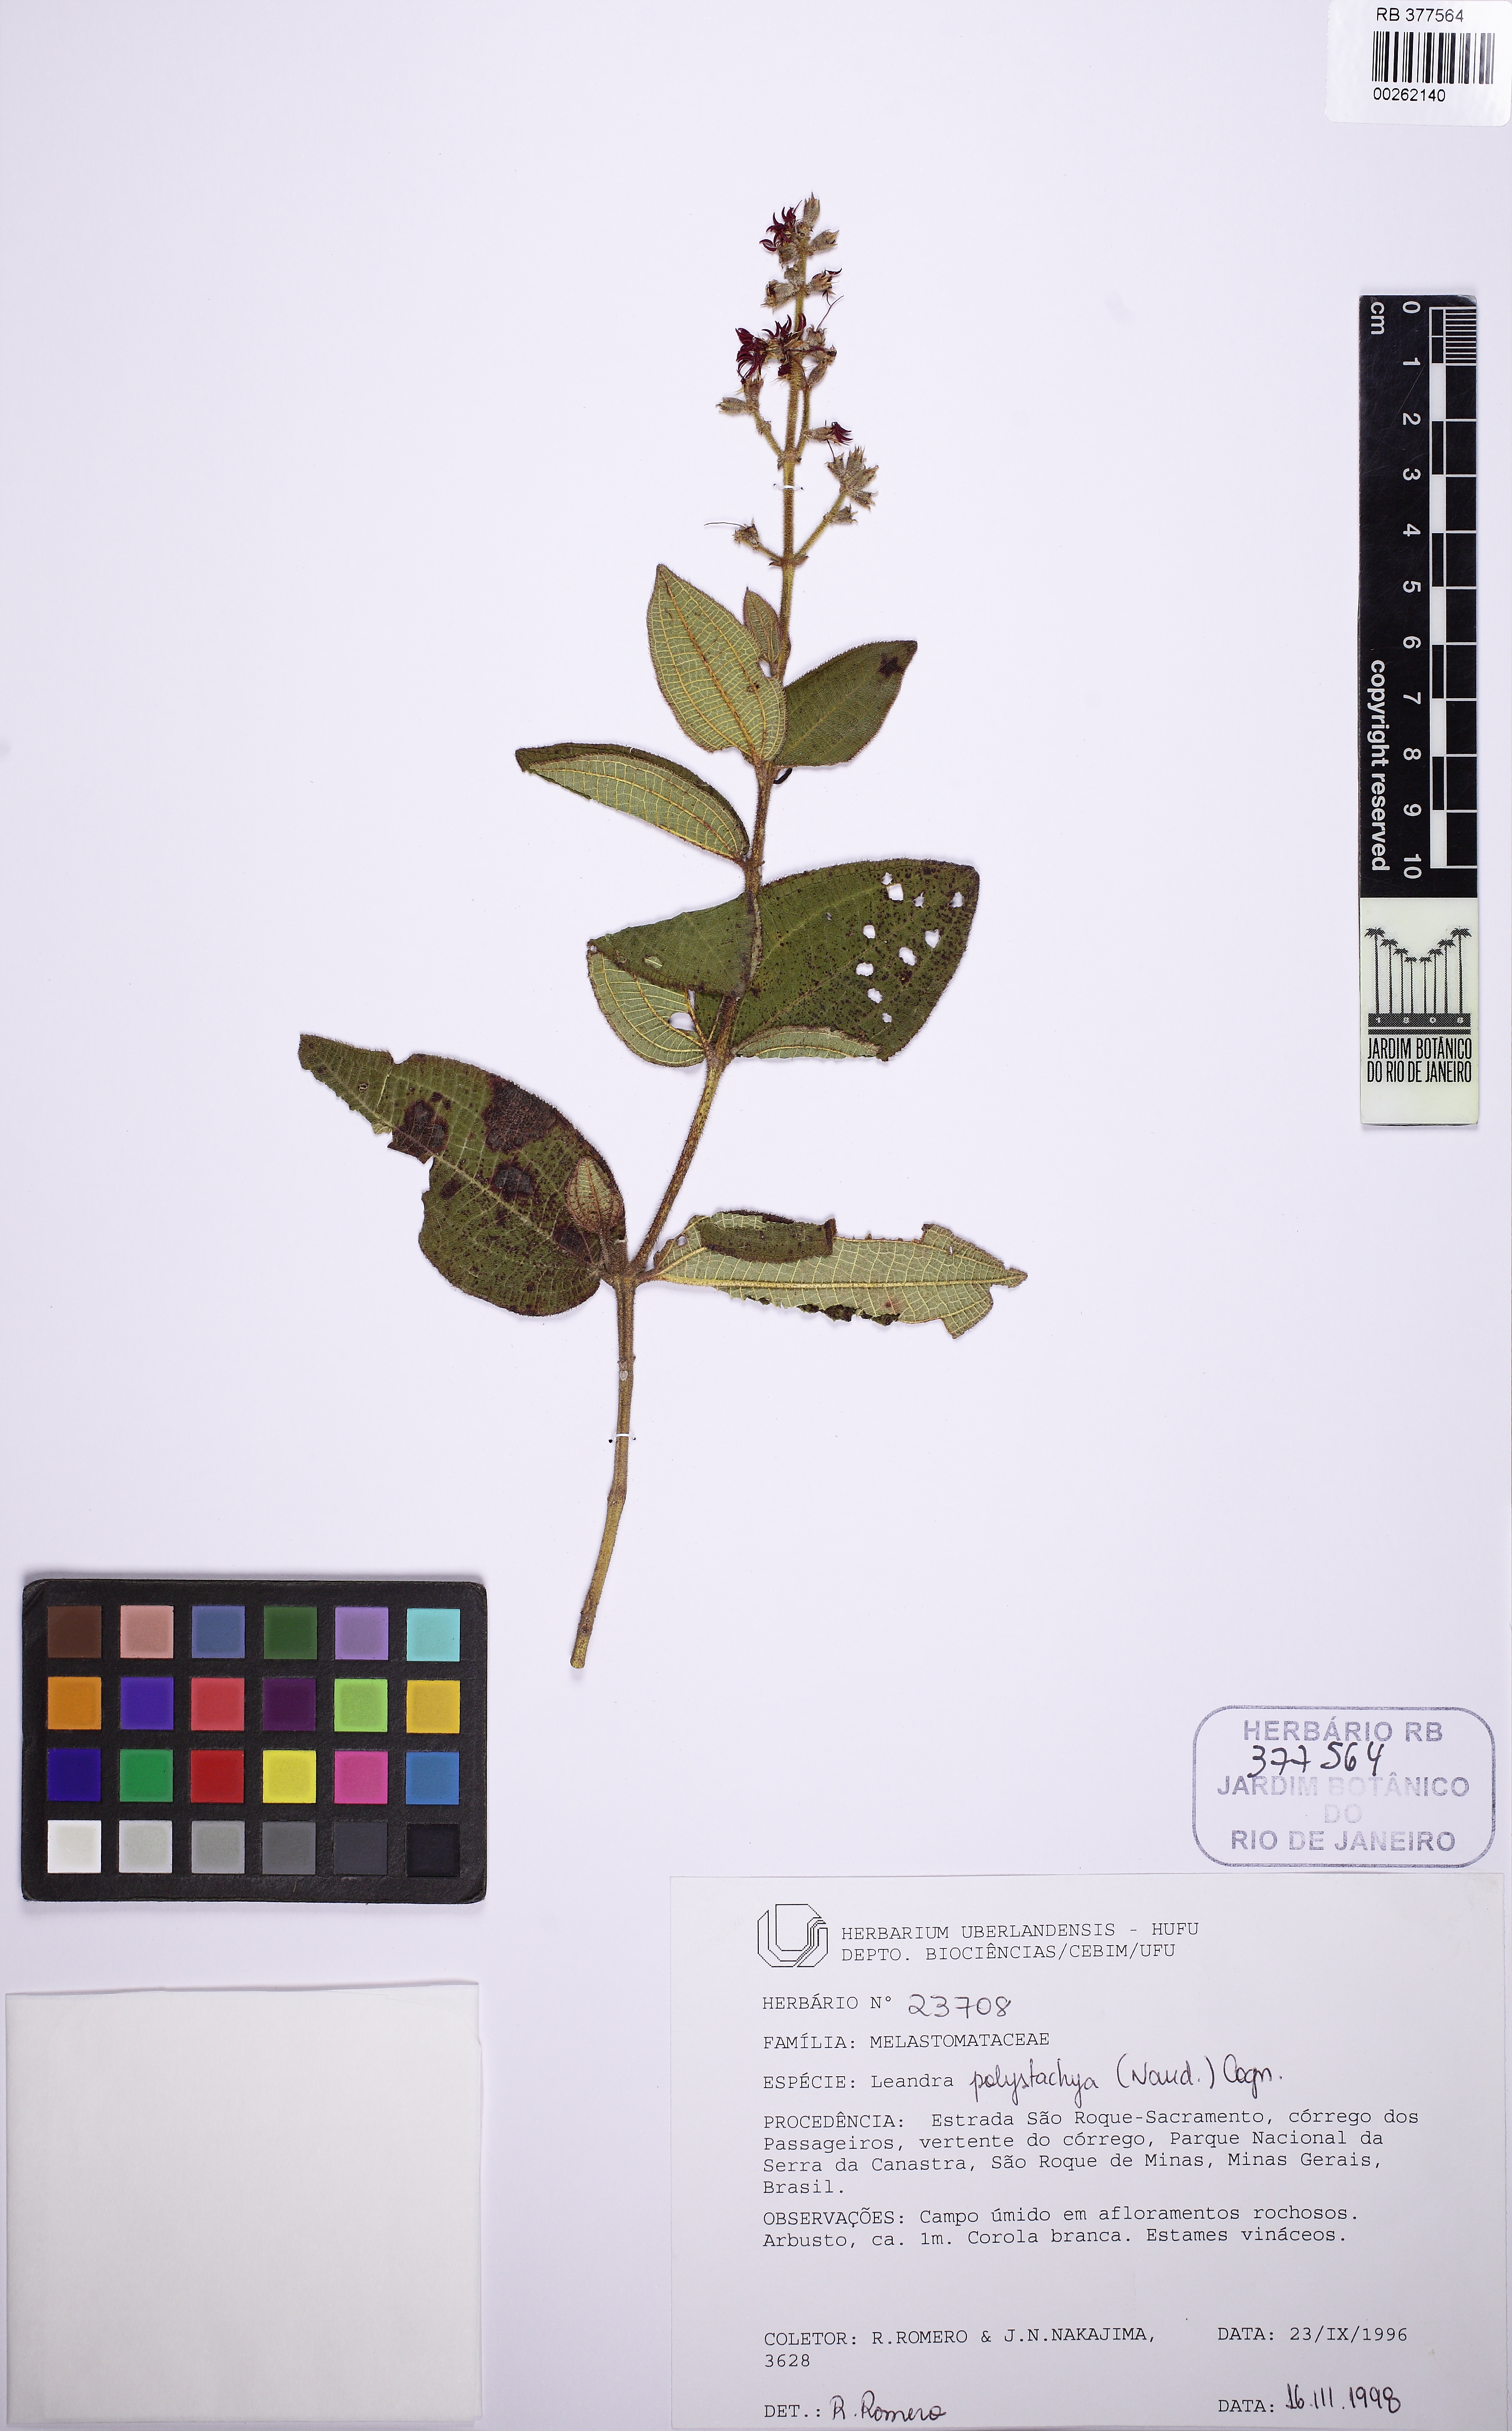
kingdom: Plantae
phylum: Tracheophyta
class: Magnoliopsida
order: Myrtales
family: Melastomataceae
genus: Miconia
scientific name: Miconia polystachya
